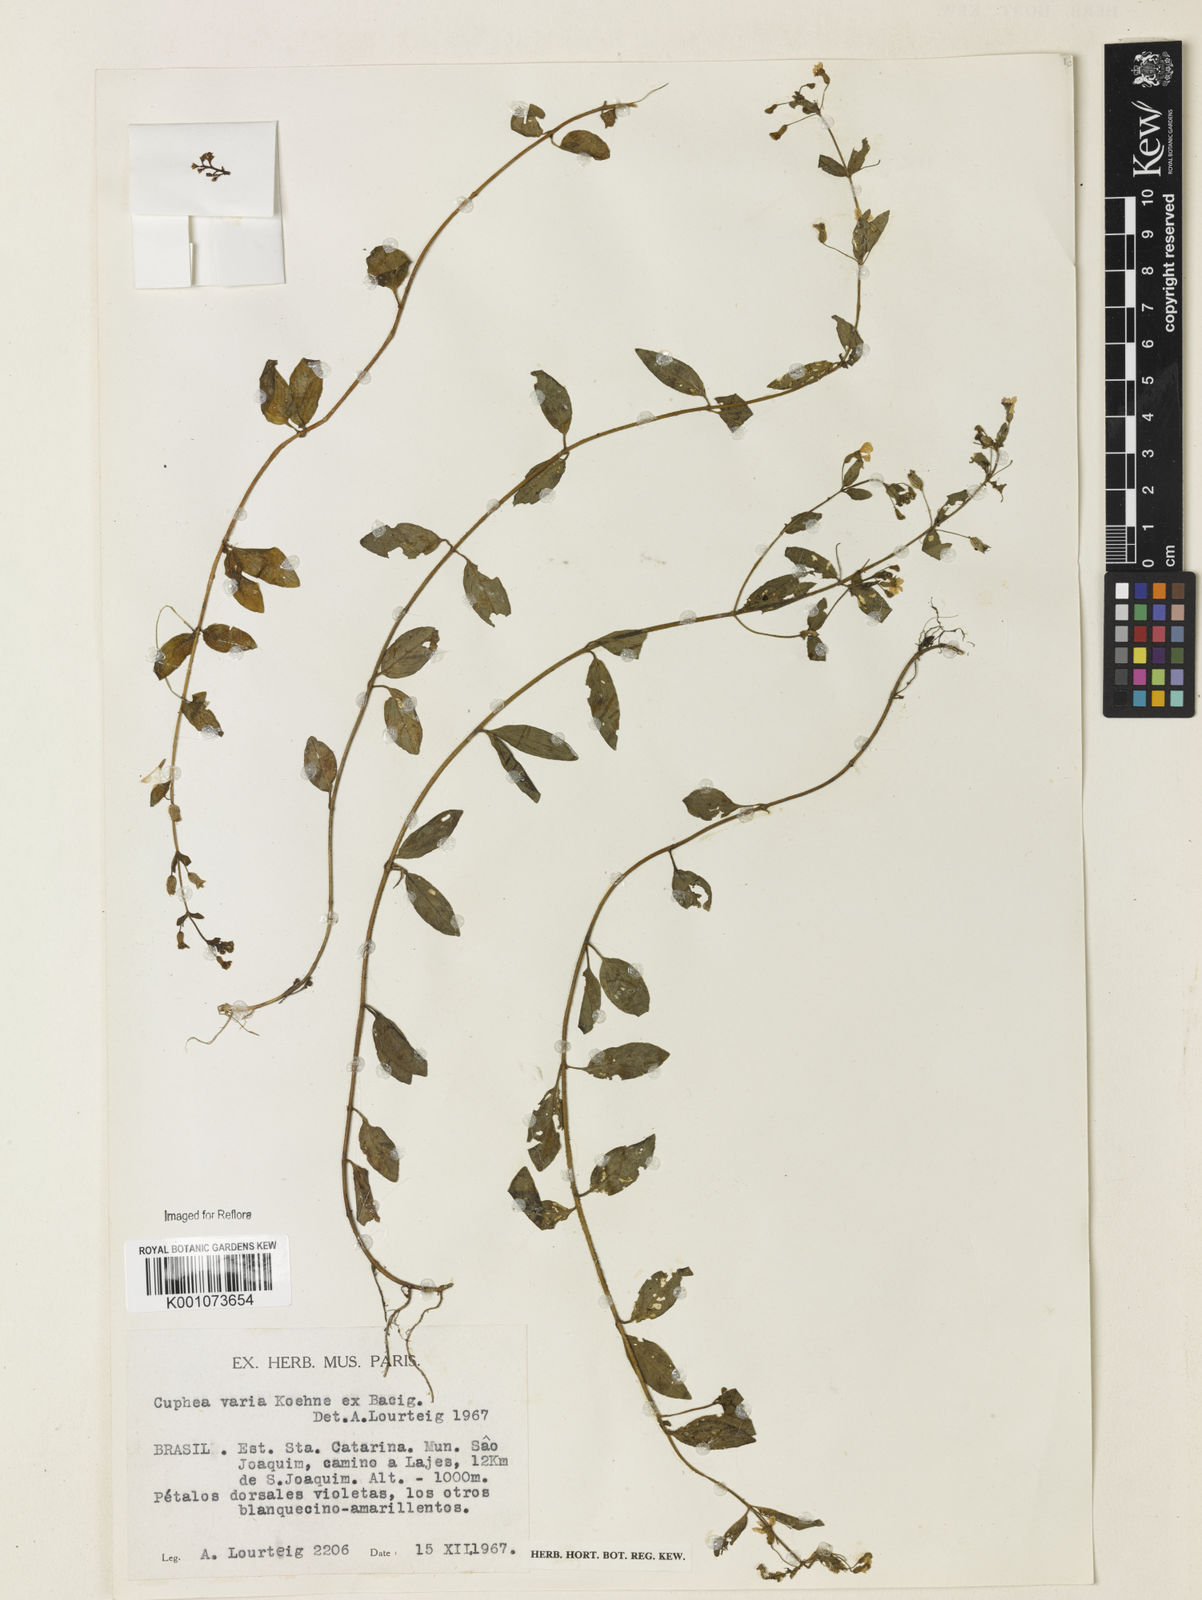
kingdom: Plantae
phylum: Tracheophyta
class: Magnoliopsida
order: Myrtales
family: Lythraceae
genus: Cuphea
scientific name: Cuphea varia
